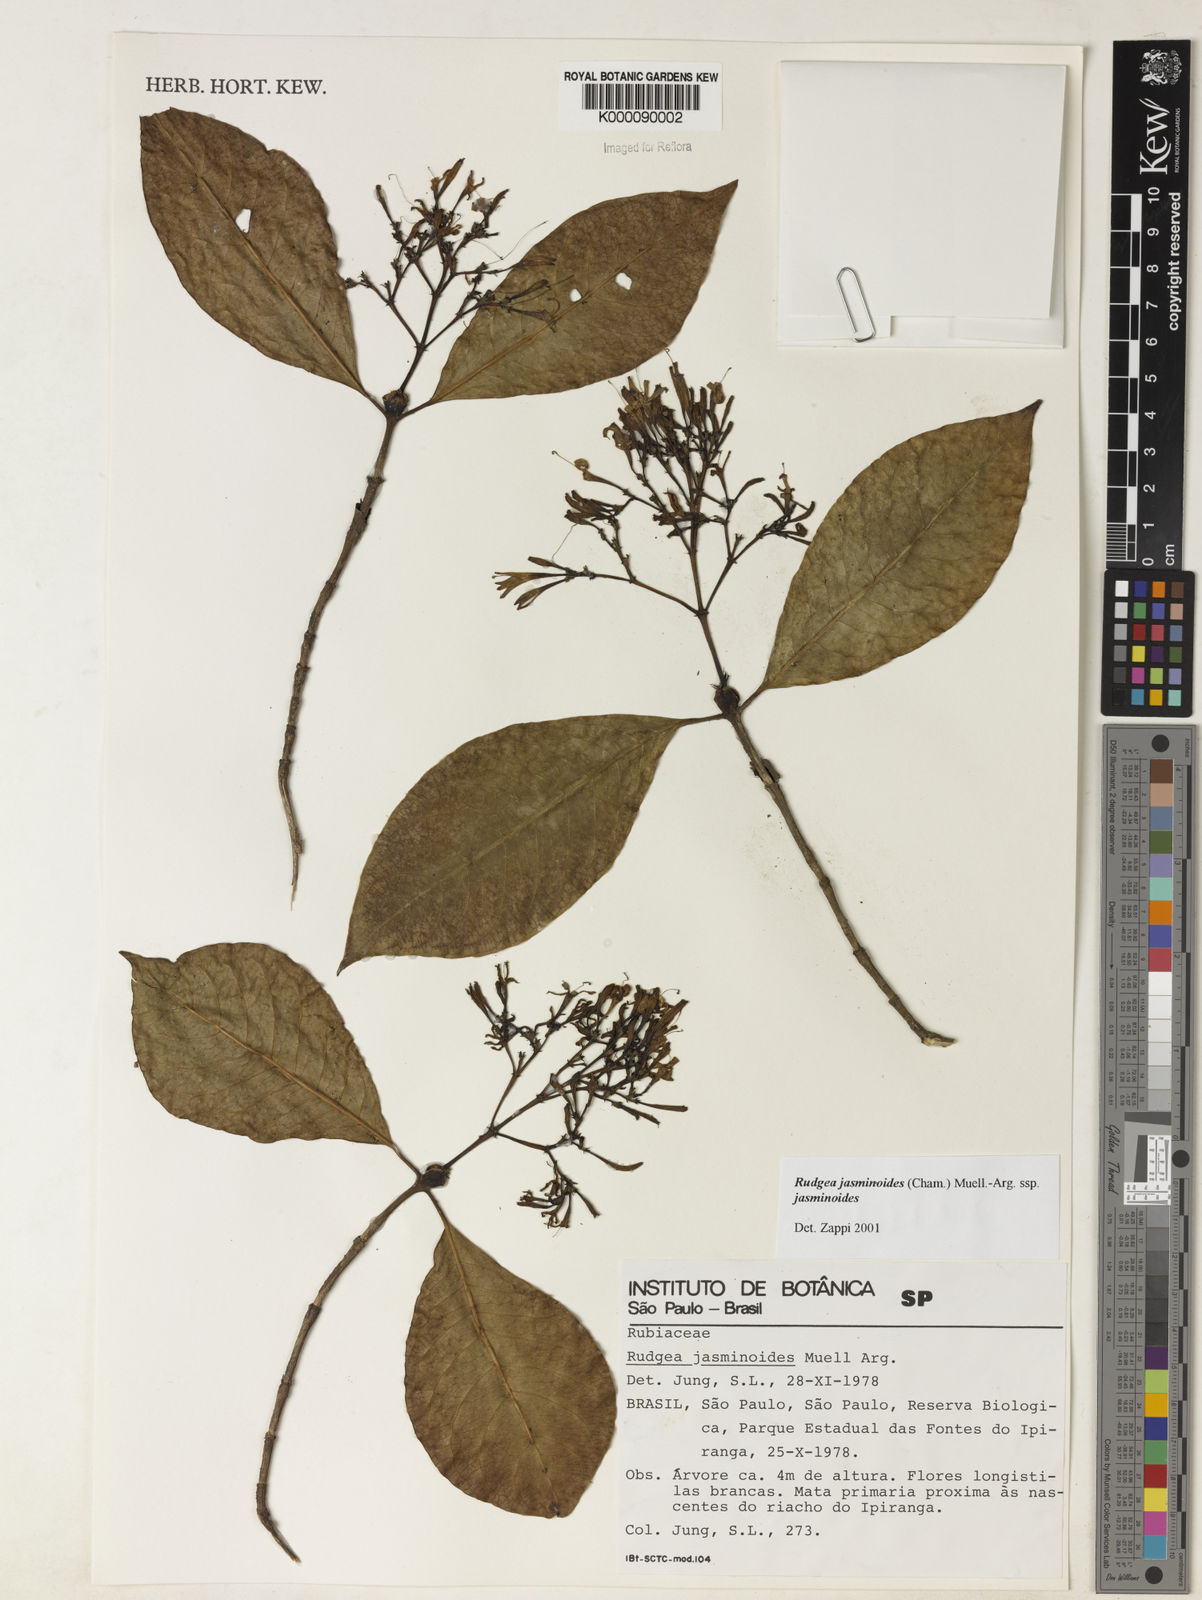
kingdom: Plantae
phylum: Tracheophyta
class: Magnoliopsida
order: Gentianales
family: Rubiaceae
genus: Rudgea
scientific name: Rudgea jasminoides
